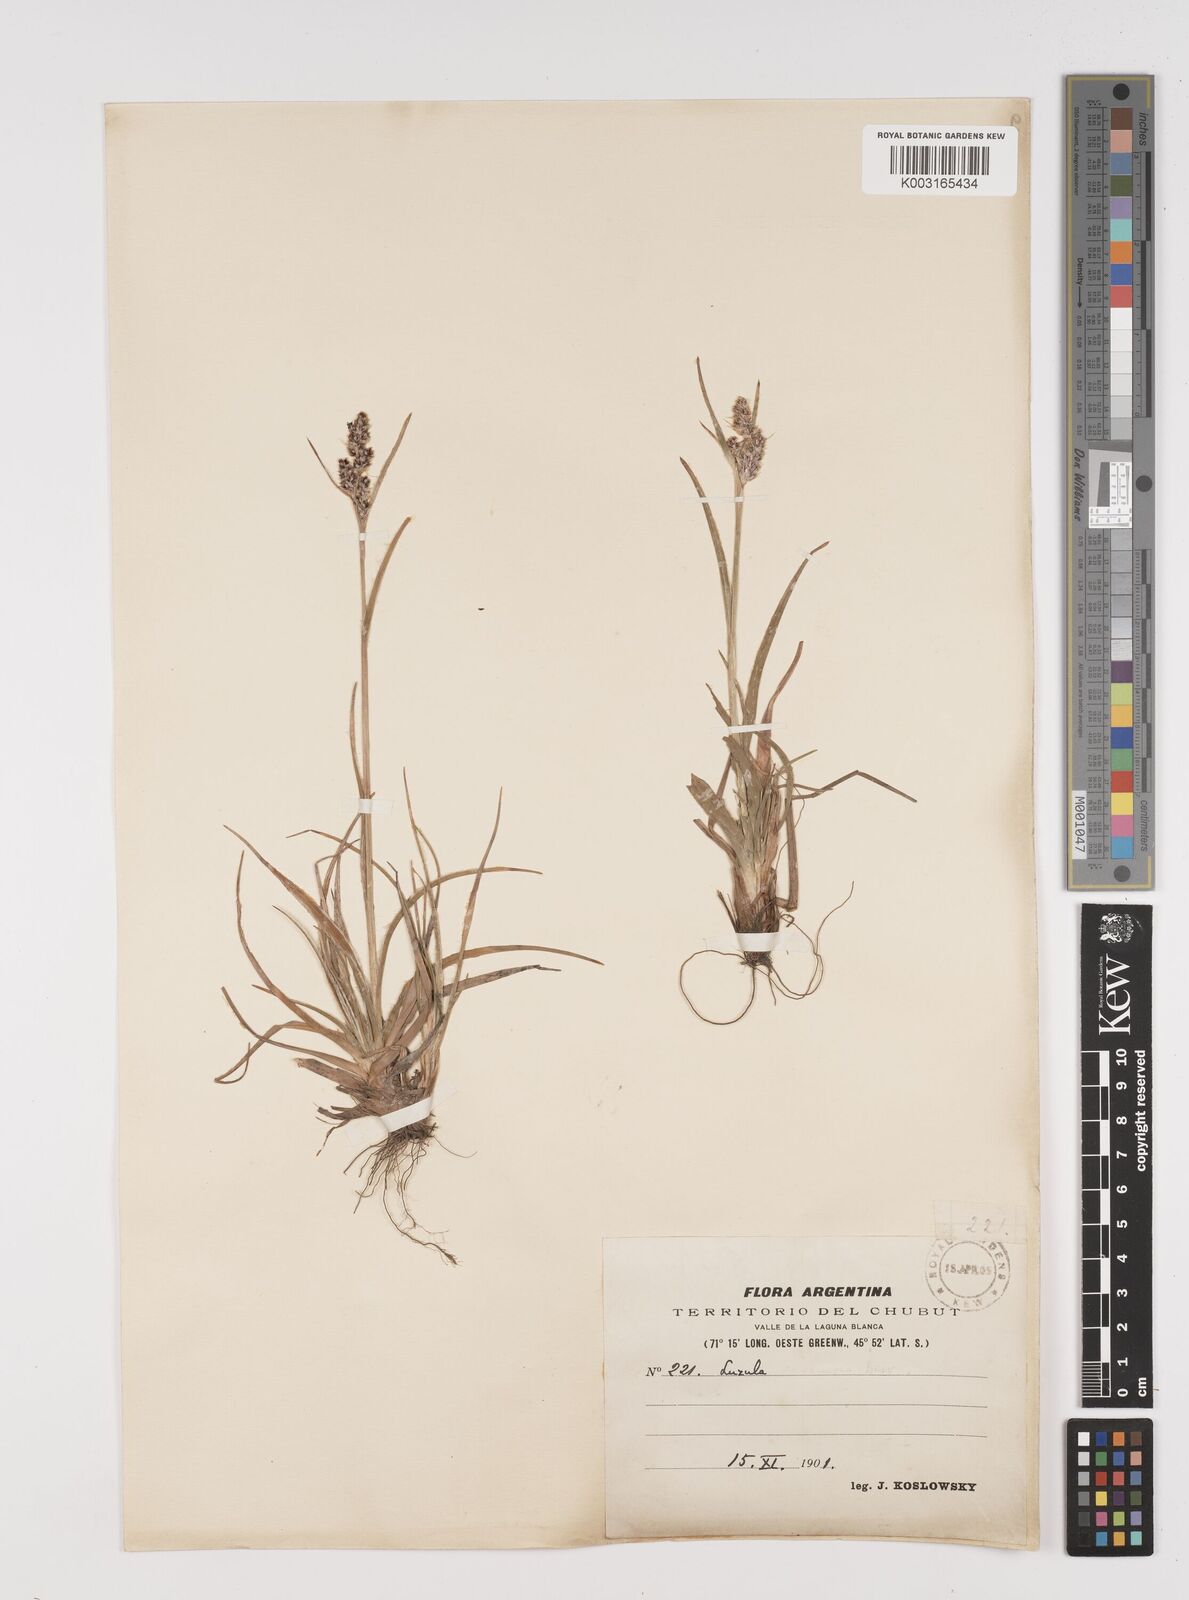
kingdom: Plantae
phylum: Tracheophyta
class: Liliopsida
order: Poales
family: Juncaceae
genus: Luzula
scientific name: Luzula alopecurus
